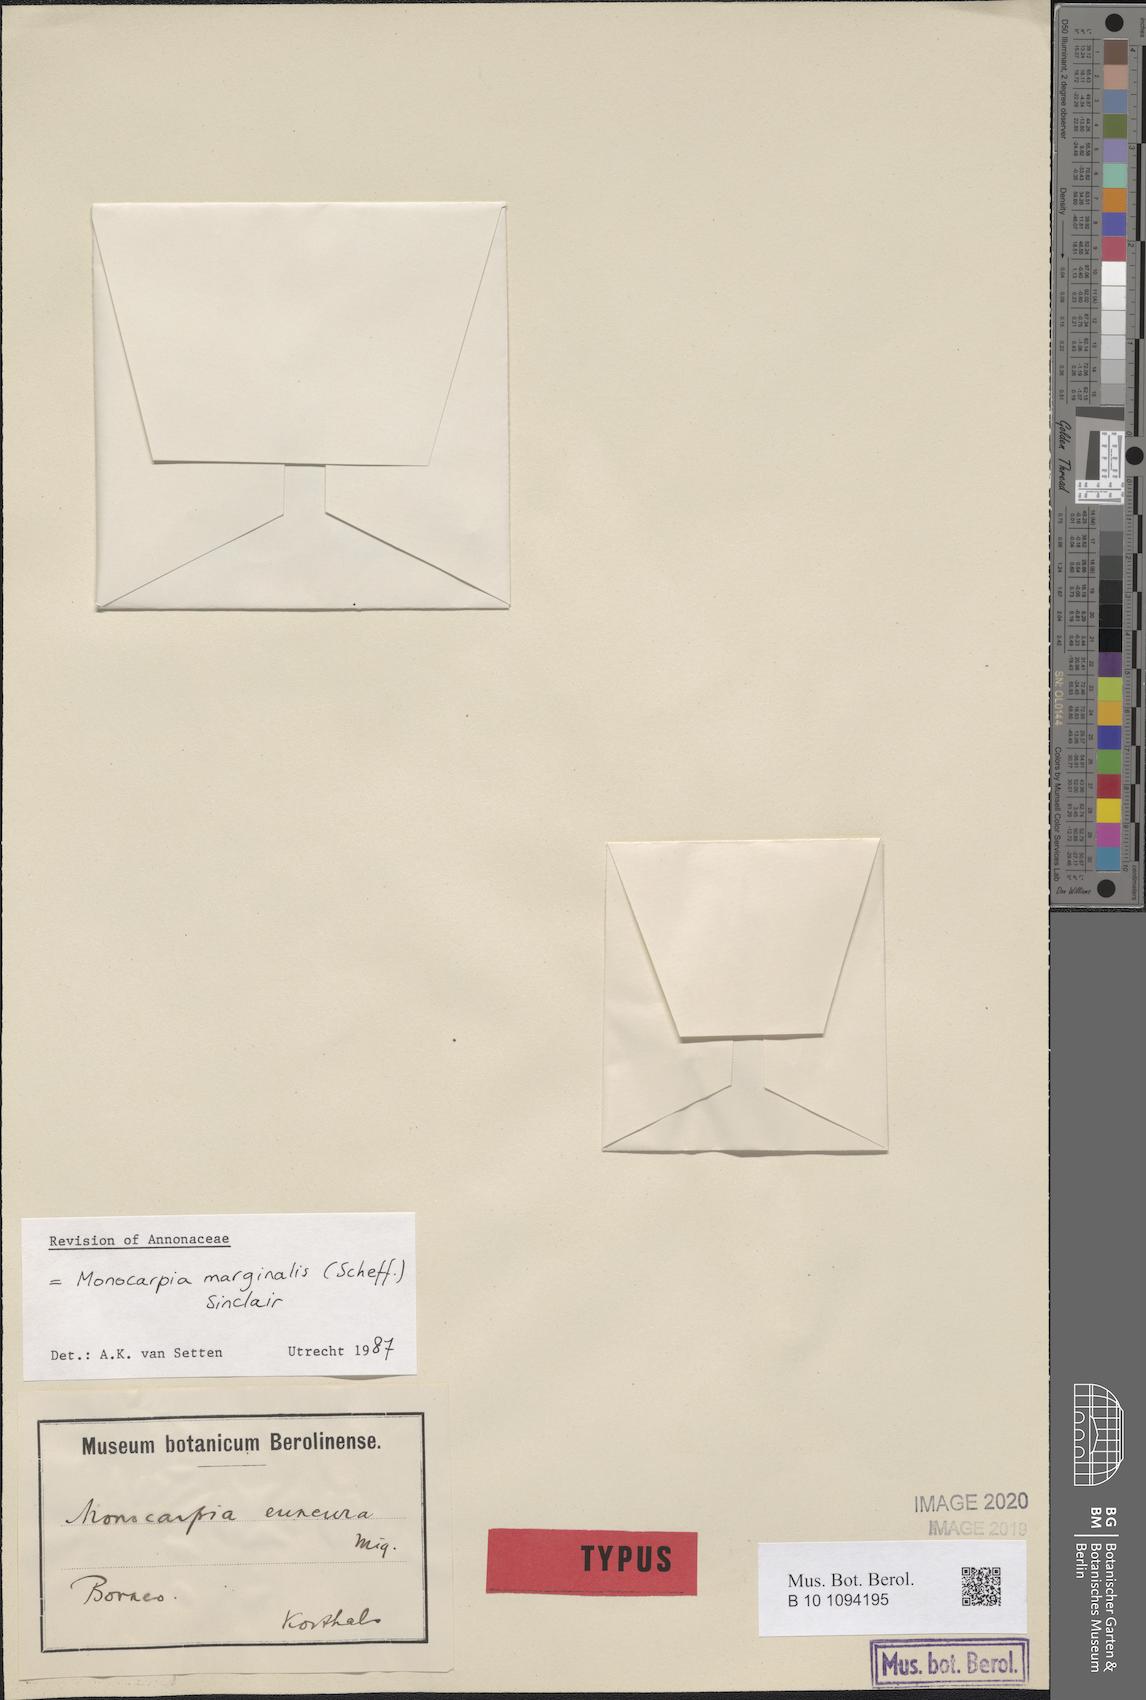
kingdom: Plantae
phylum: Tracheophyta
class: Magnoliopsida
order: Magnoliales
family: Annonaceae
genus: Monodora
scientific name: Monodora
